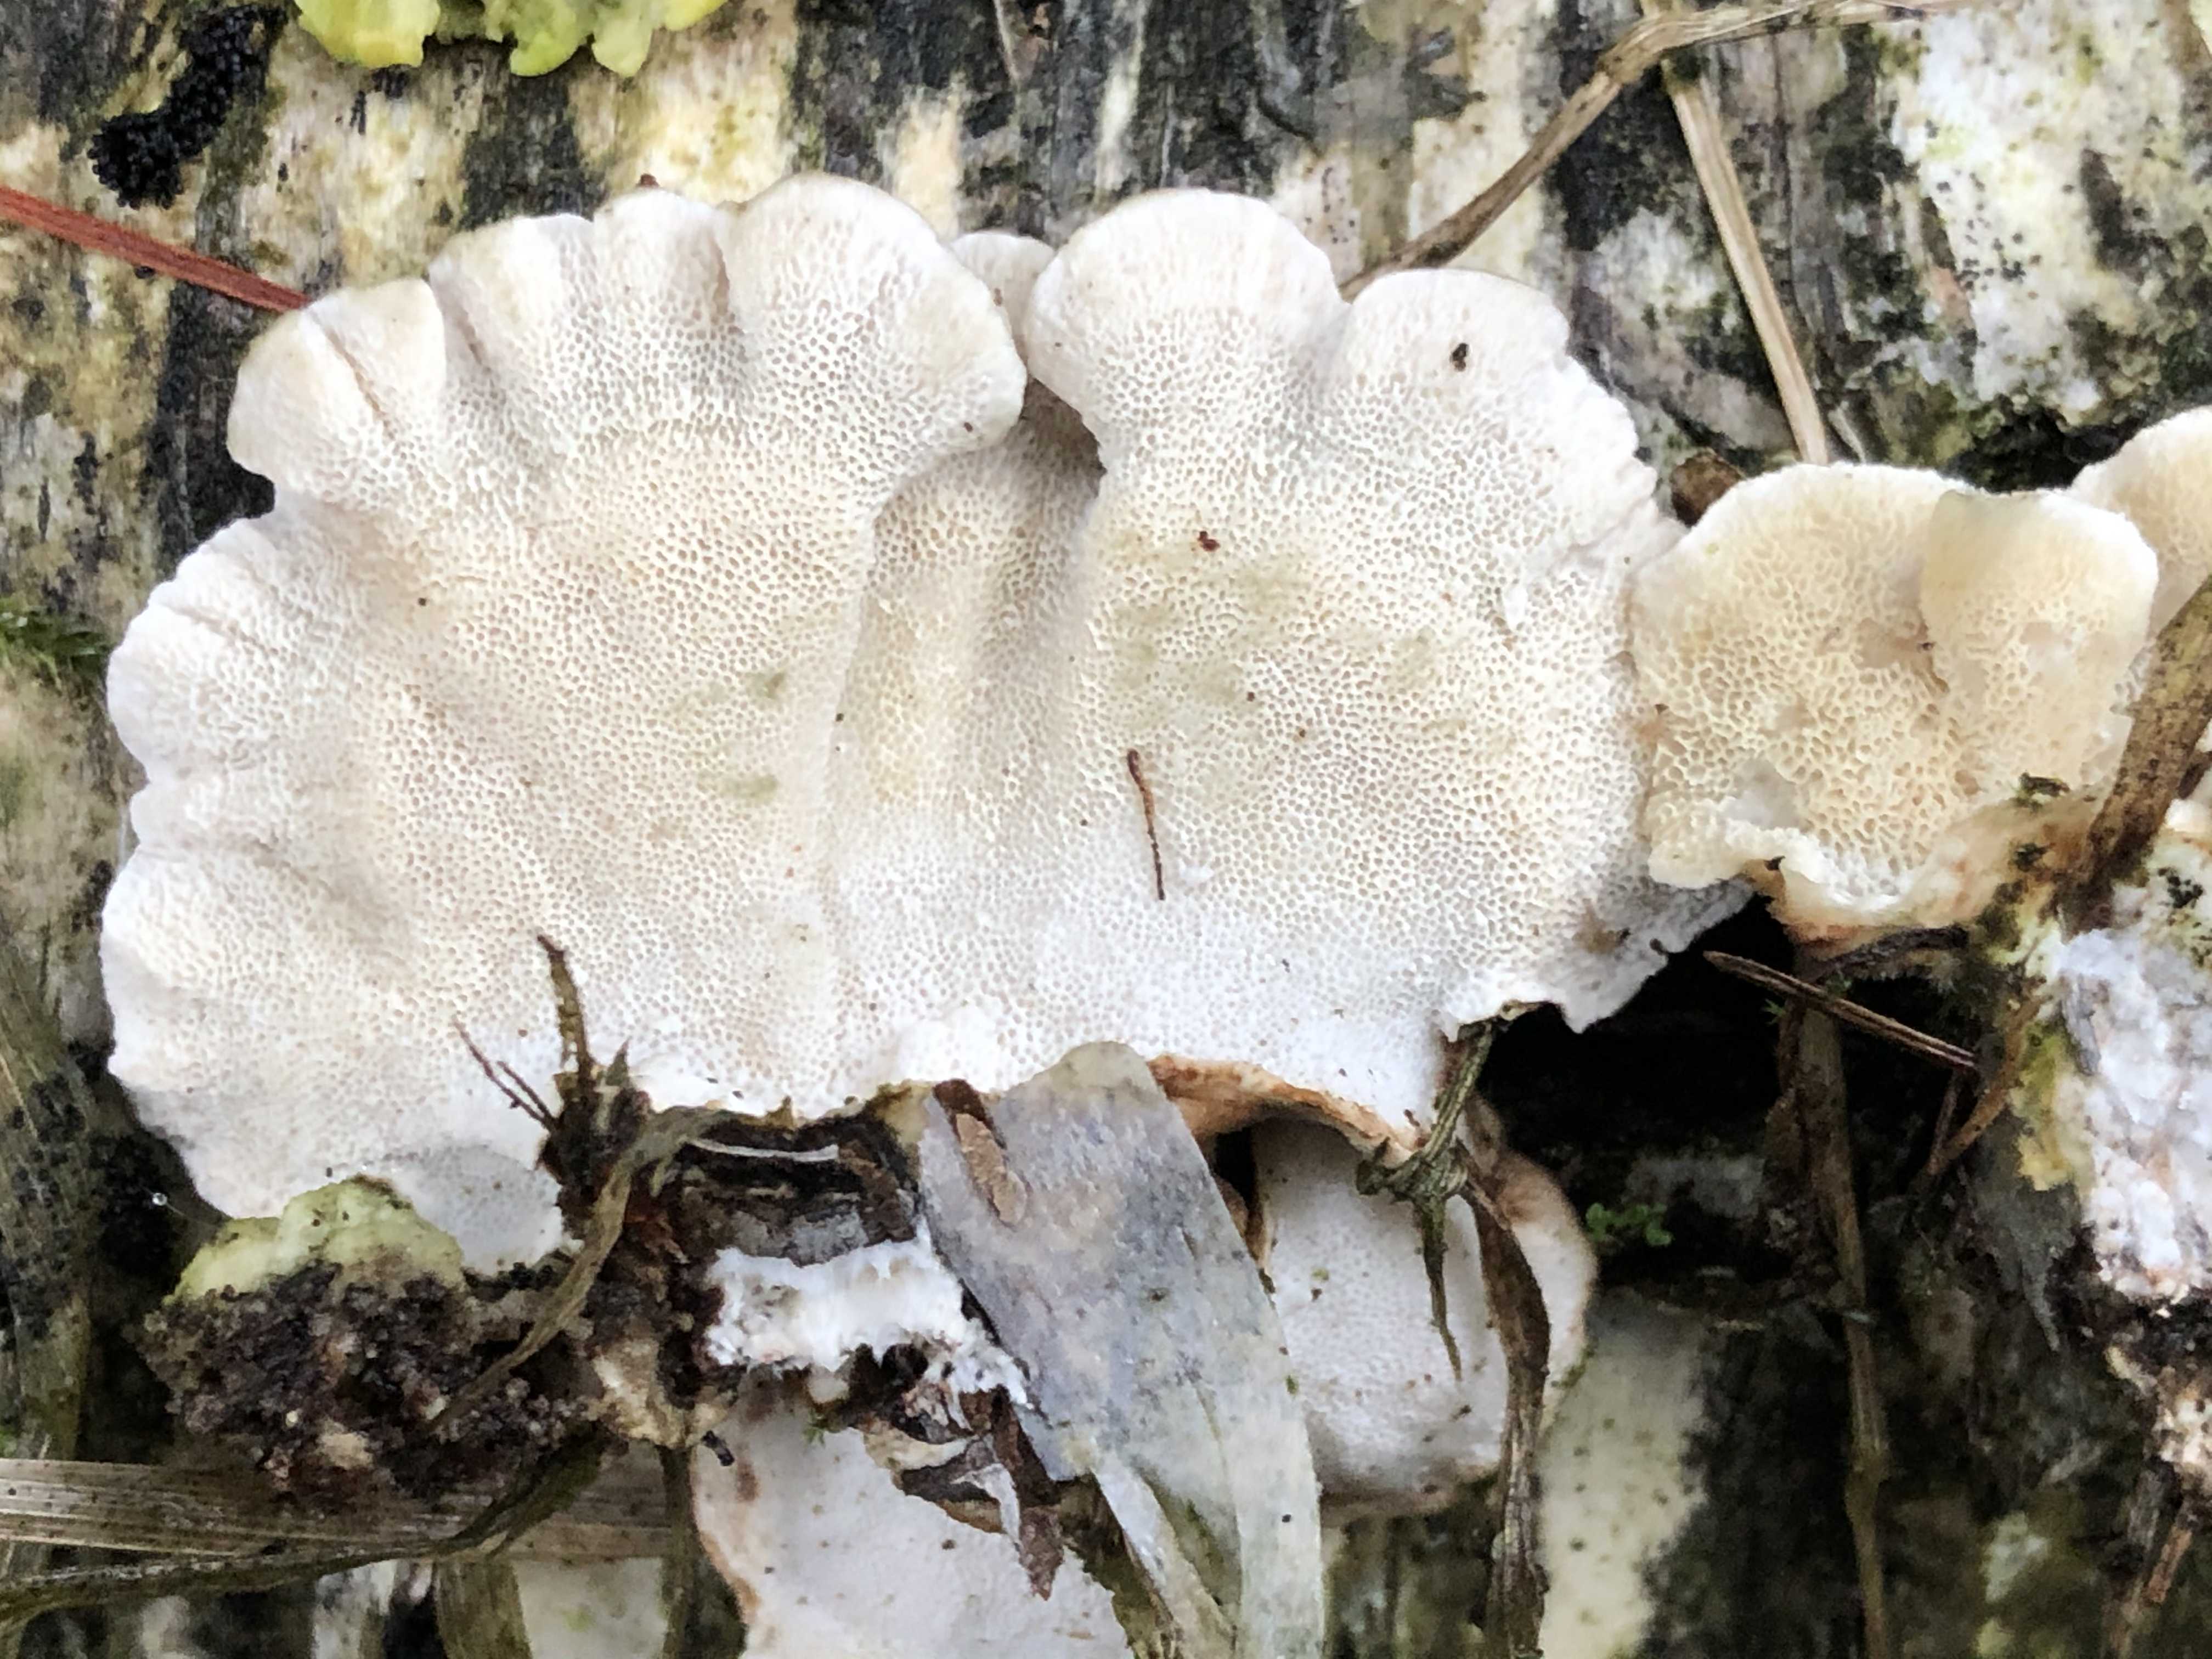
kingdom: Fungi
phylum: Basidiomycota
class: Agaricomycetes
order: Polyporales
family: Polyporaceae
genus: Trametes
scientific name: Trametes versicolor
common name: broget læderporesvamp
